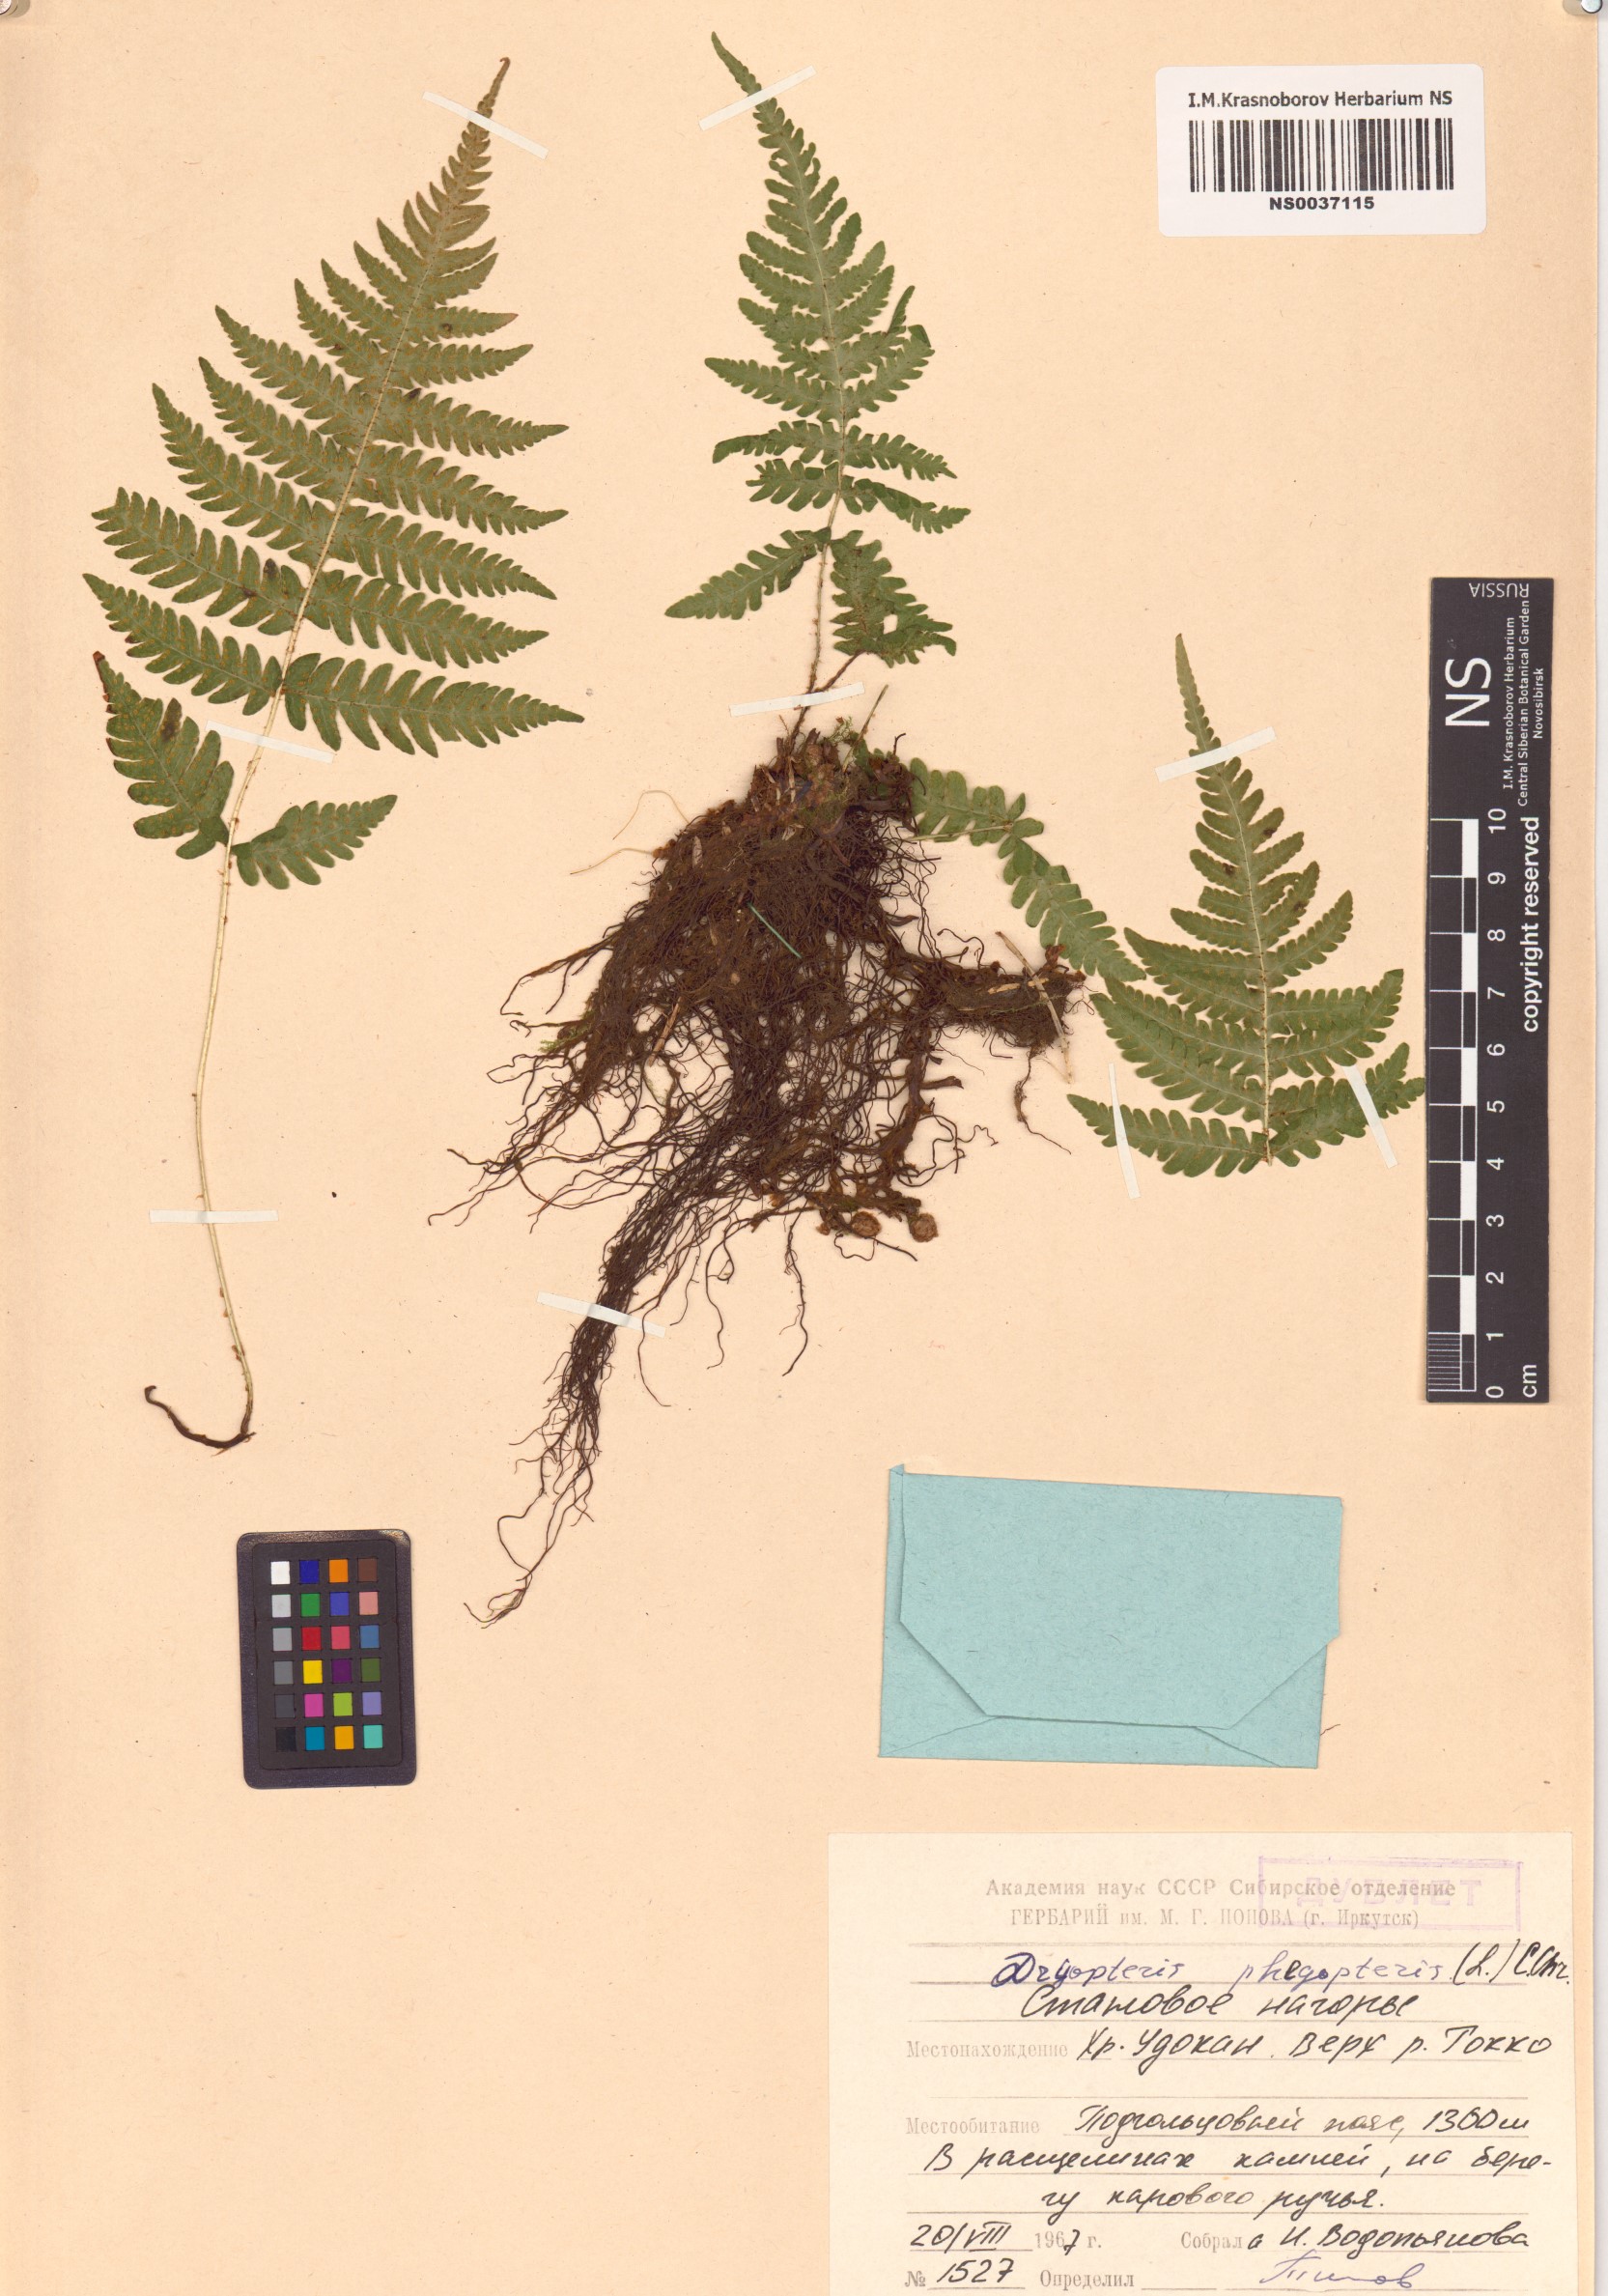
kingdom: Plantae
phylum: Tracheophyta
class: Polypodiopsida
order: Polypodiales
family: Thelypteridaceae
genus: Phegopteris
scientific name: Phegopteris connectilis
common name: Beech fern
